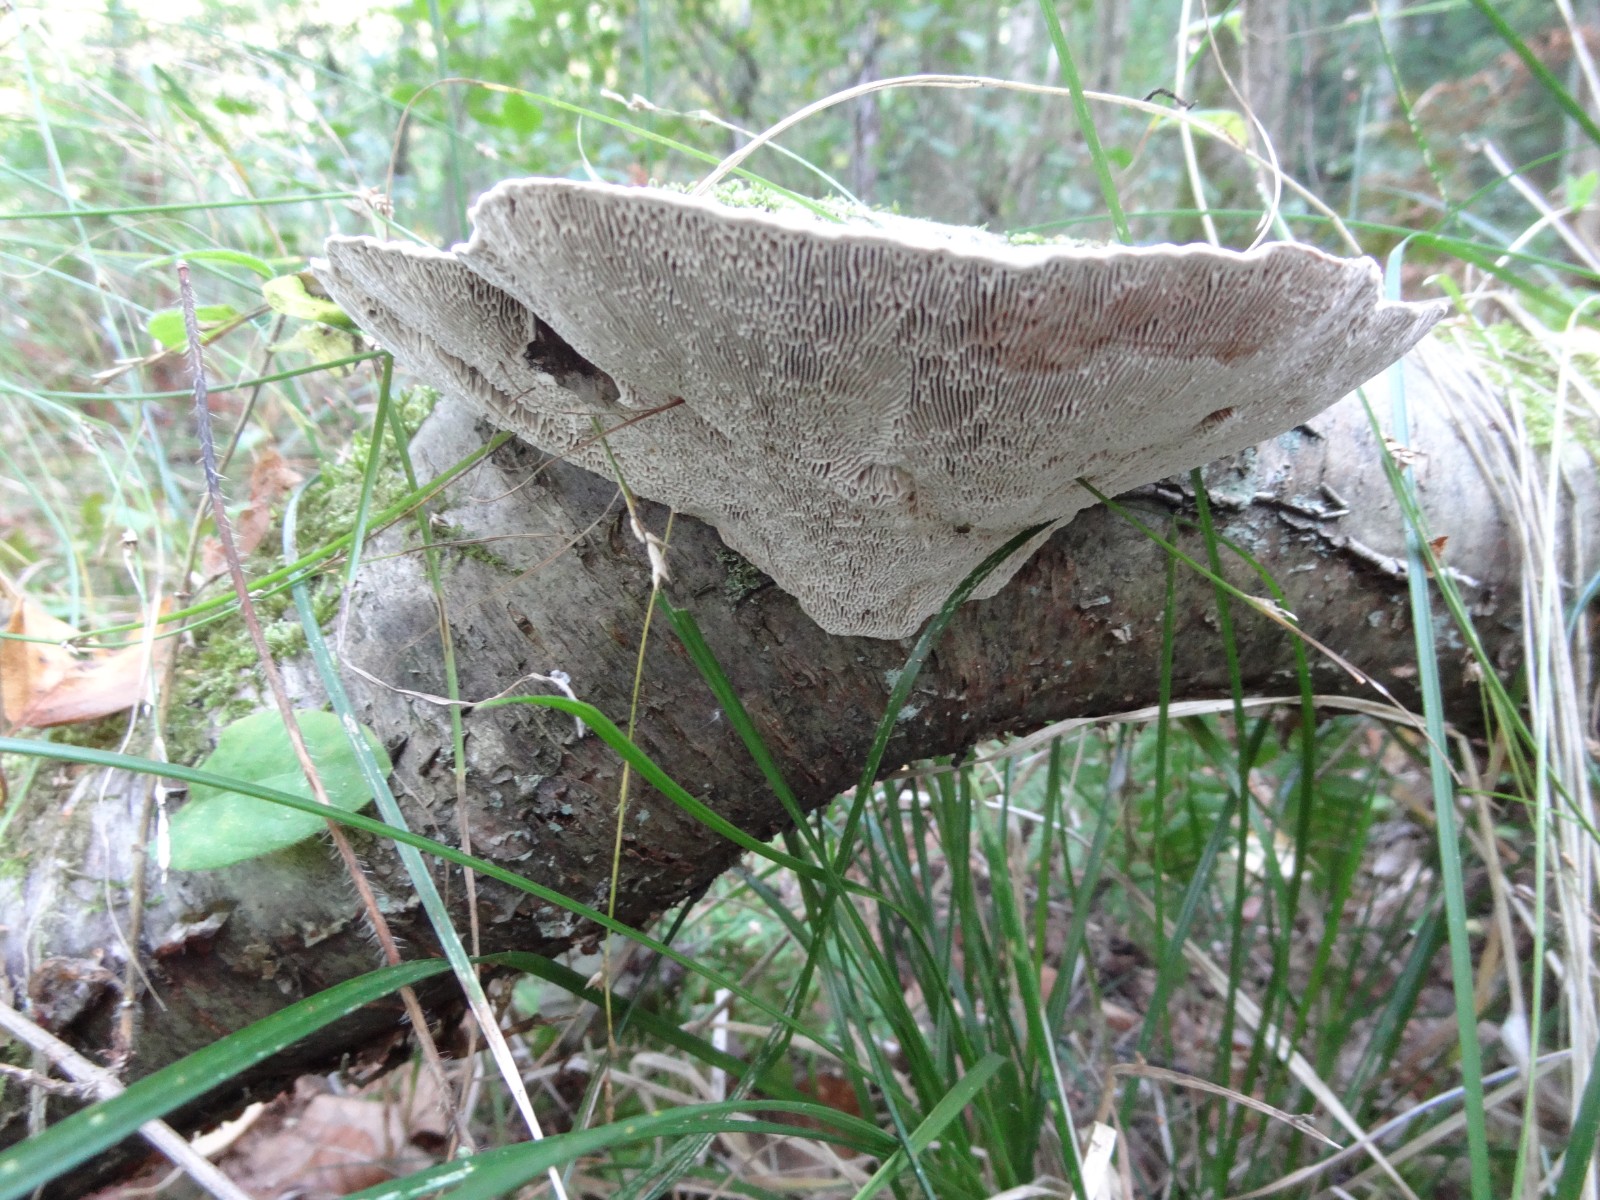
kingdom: Fungi
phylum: Basidiomycota
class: Agaricomycetes
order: Polyporales
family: Polyporaceae
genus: Daedaleopsis
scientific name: Daedaleopsis confragosa
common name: rødmende læderporesvamp
